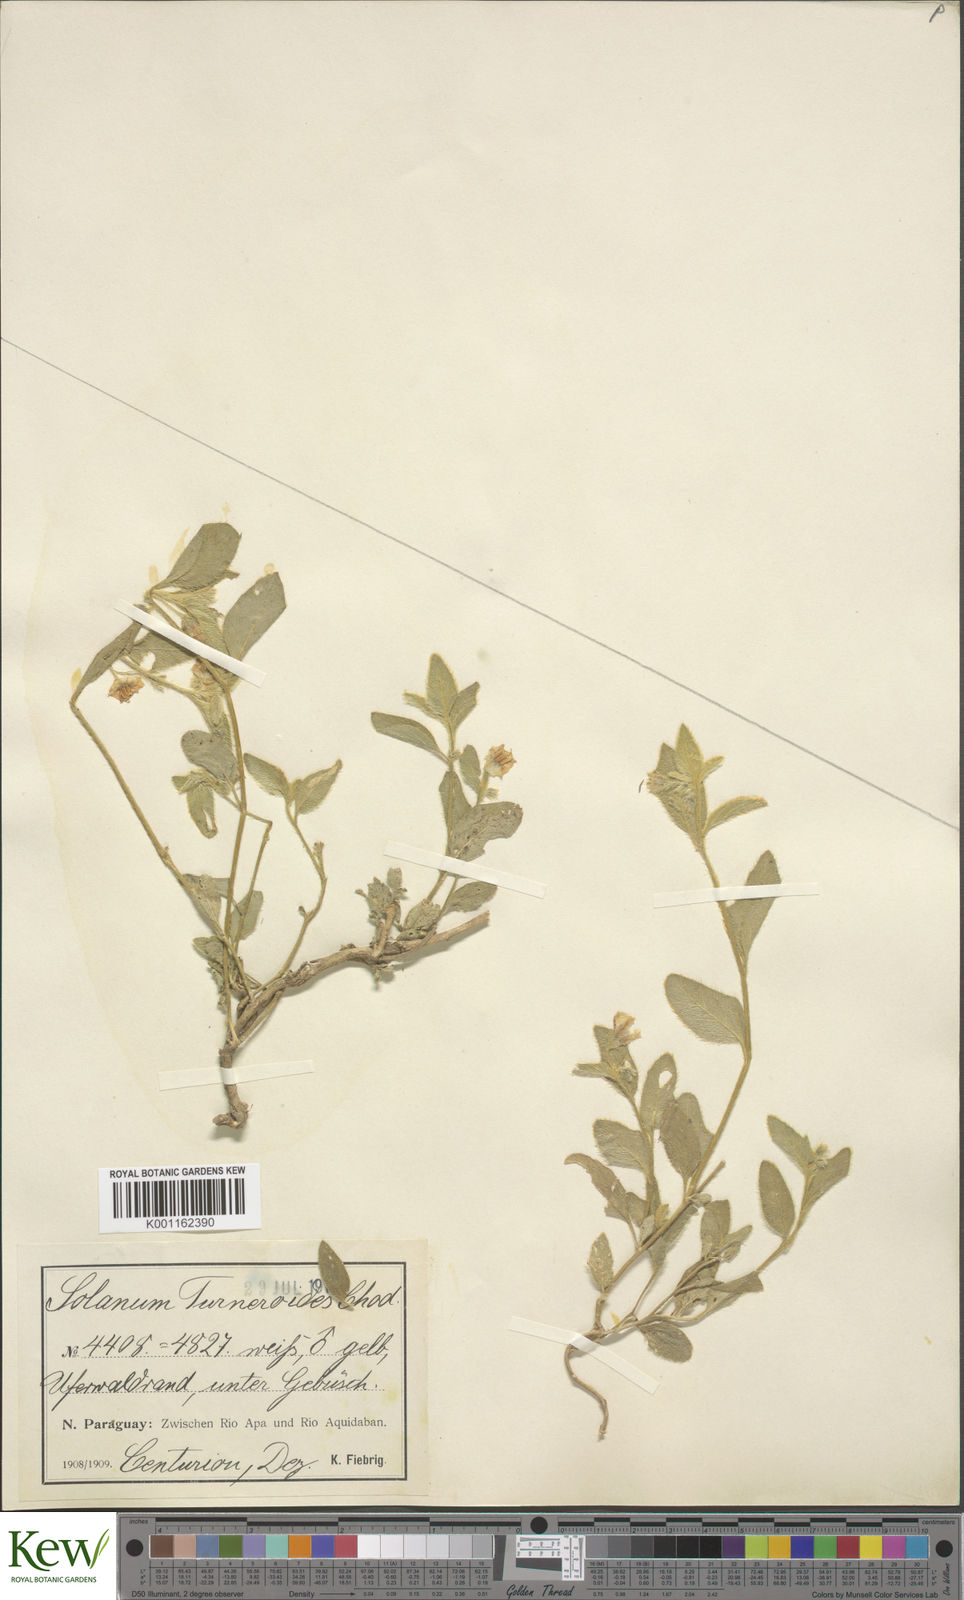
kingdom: Plantae
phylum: Tracheophyta
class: Magnoliopsida
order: Solanales
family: Solanaceae
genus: Solanum
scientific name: Solanum turneroides
